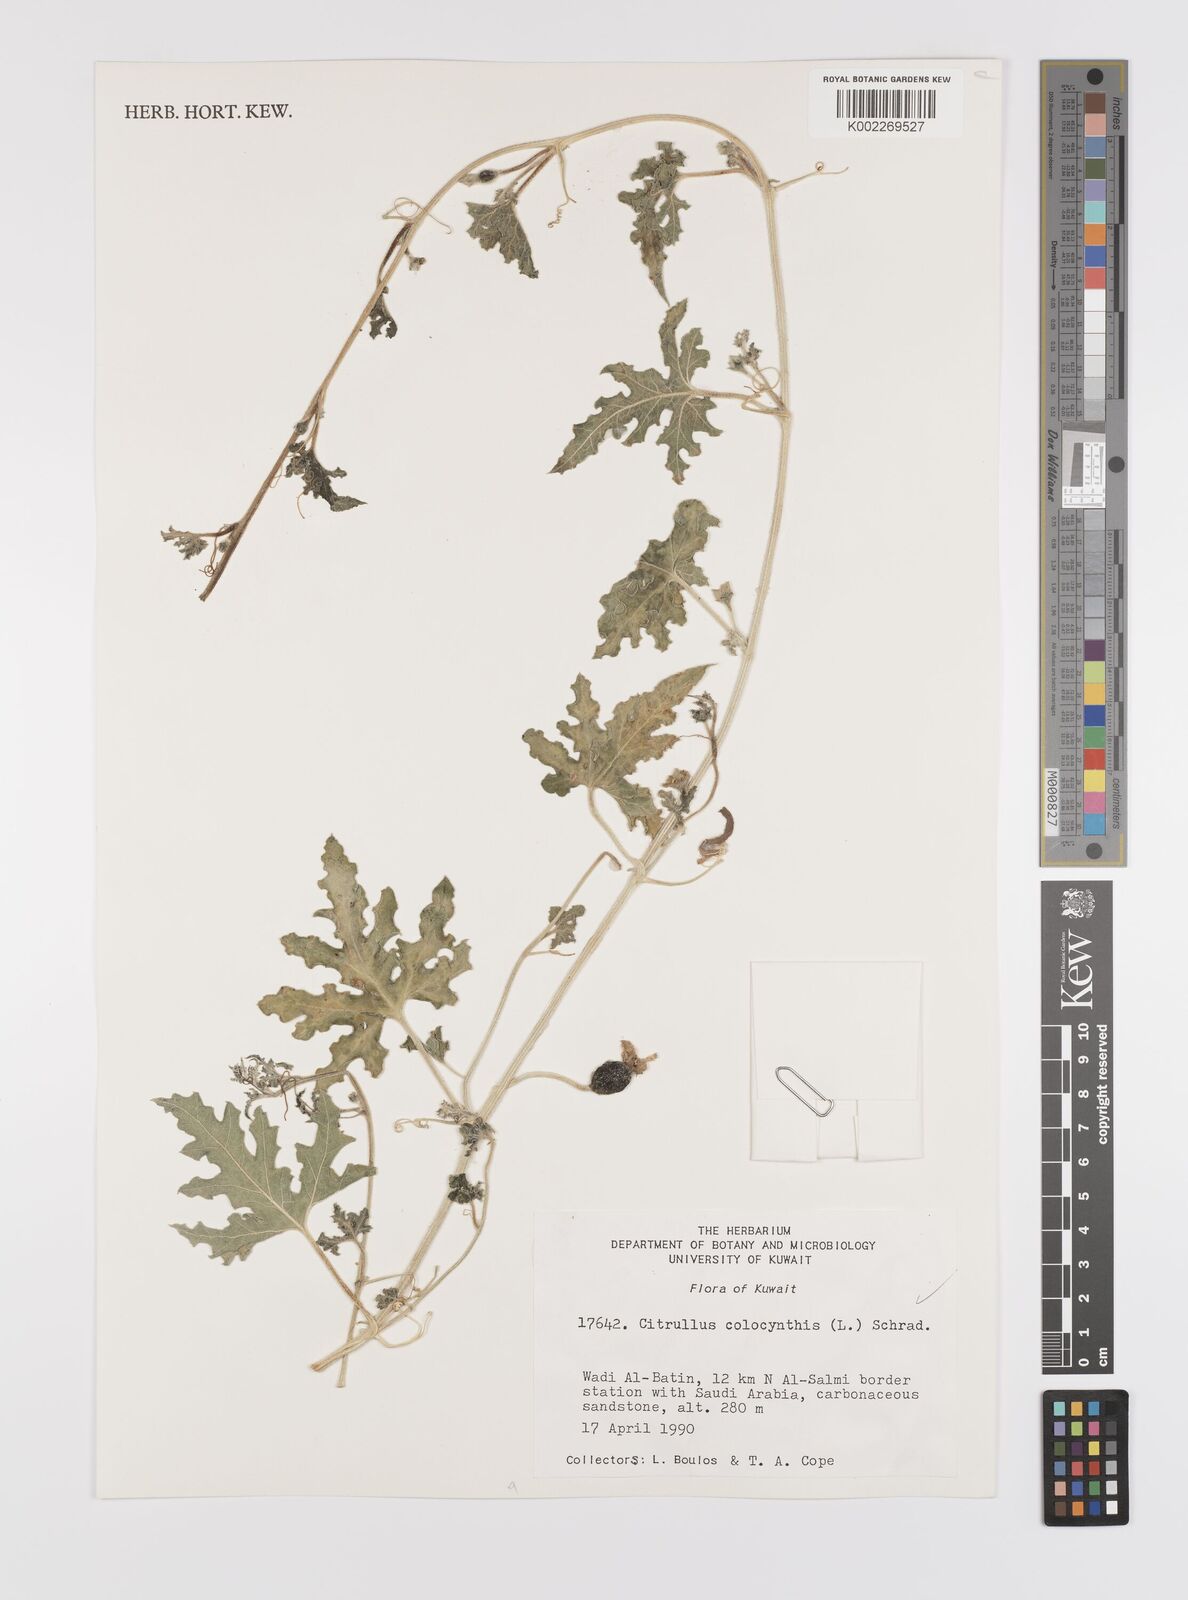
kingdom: Plantae
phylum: Tracheophyta
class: Magnoliopsida
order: Cucurbitales
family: Cucurbitaceae
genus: Citrullus
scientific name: Citrullus colocynthis
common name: Colocynth
